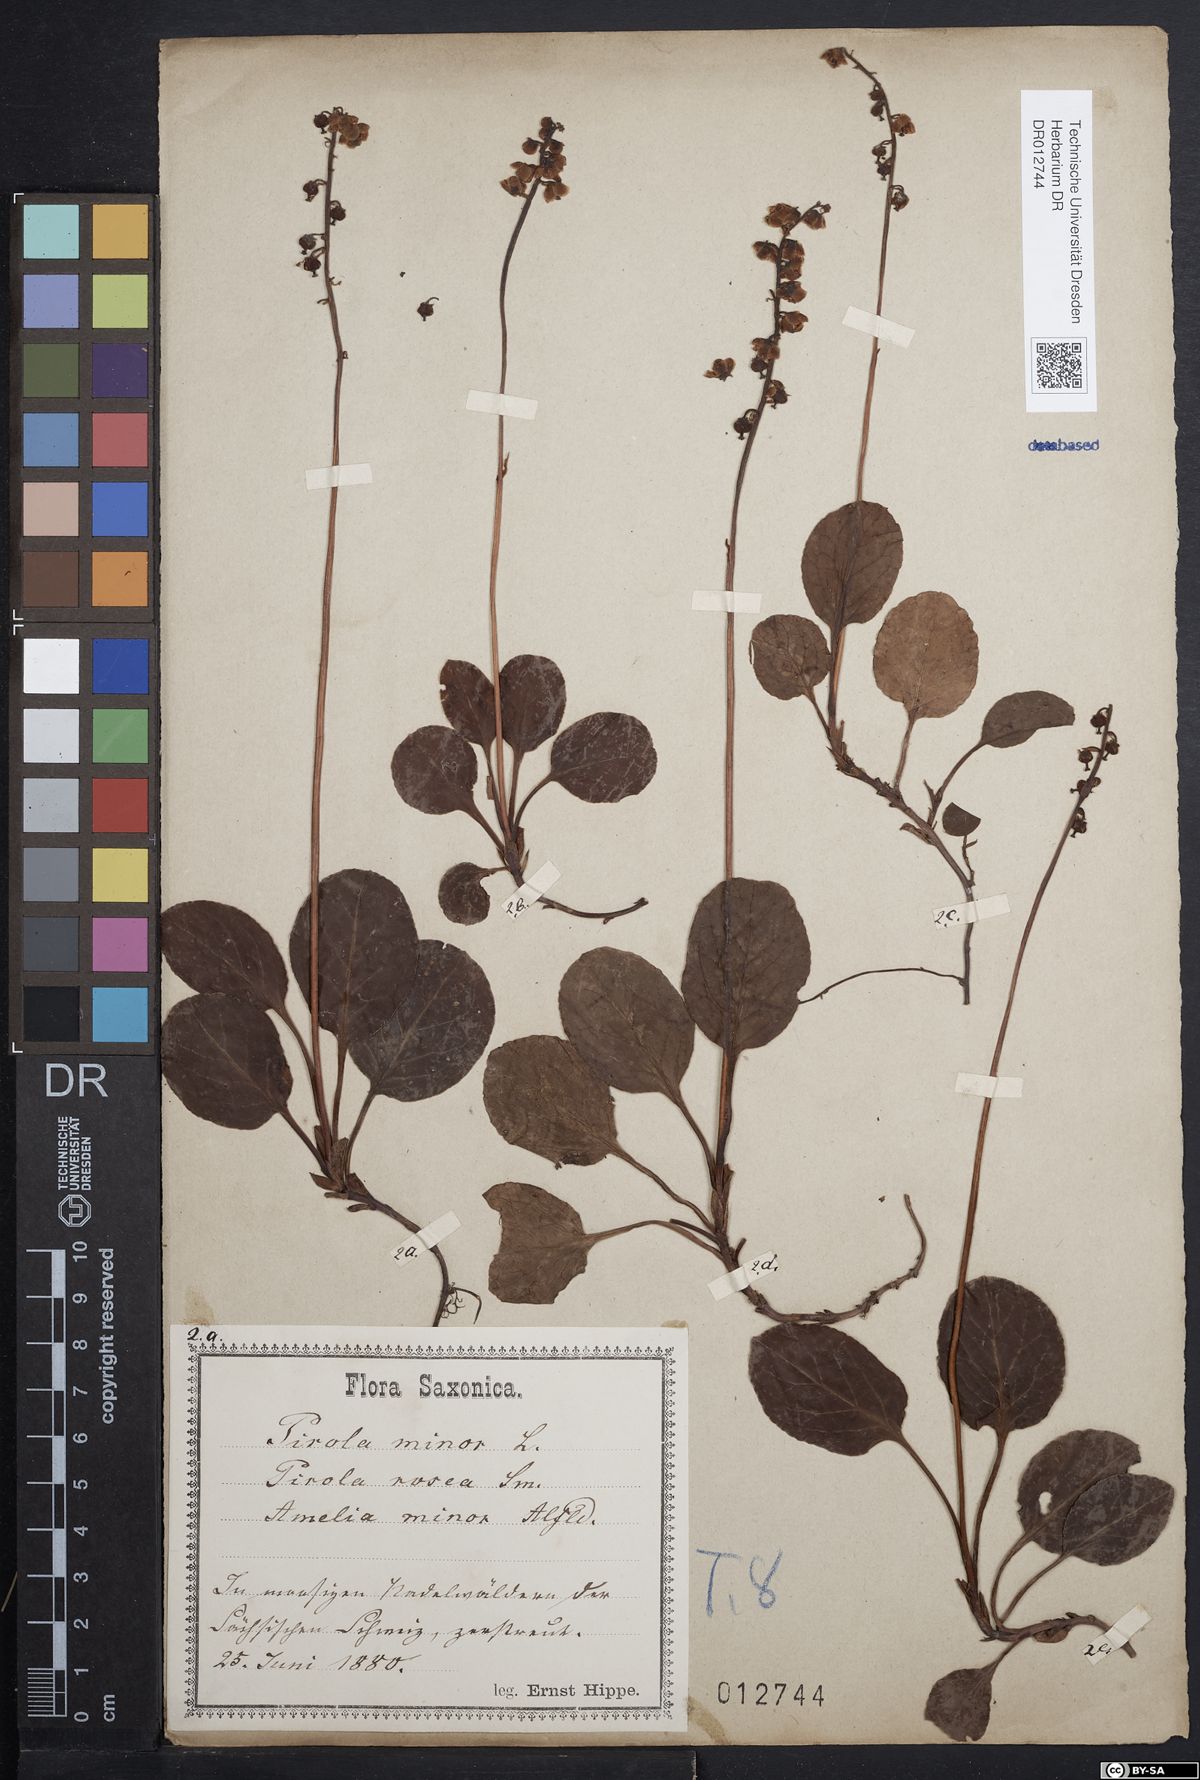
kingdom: Plantae
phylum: Tracheophyta
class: Magnoliopsida
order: Ericales
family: Ericaceae
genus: Pyrola
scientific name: Pyrola minor
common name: Common wintergreen
